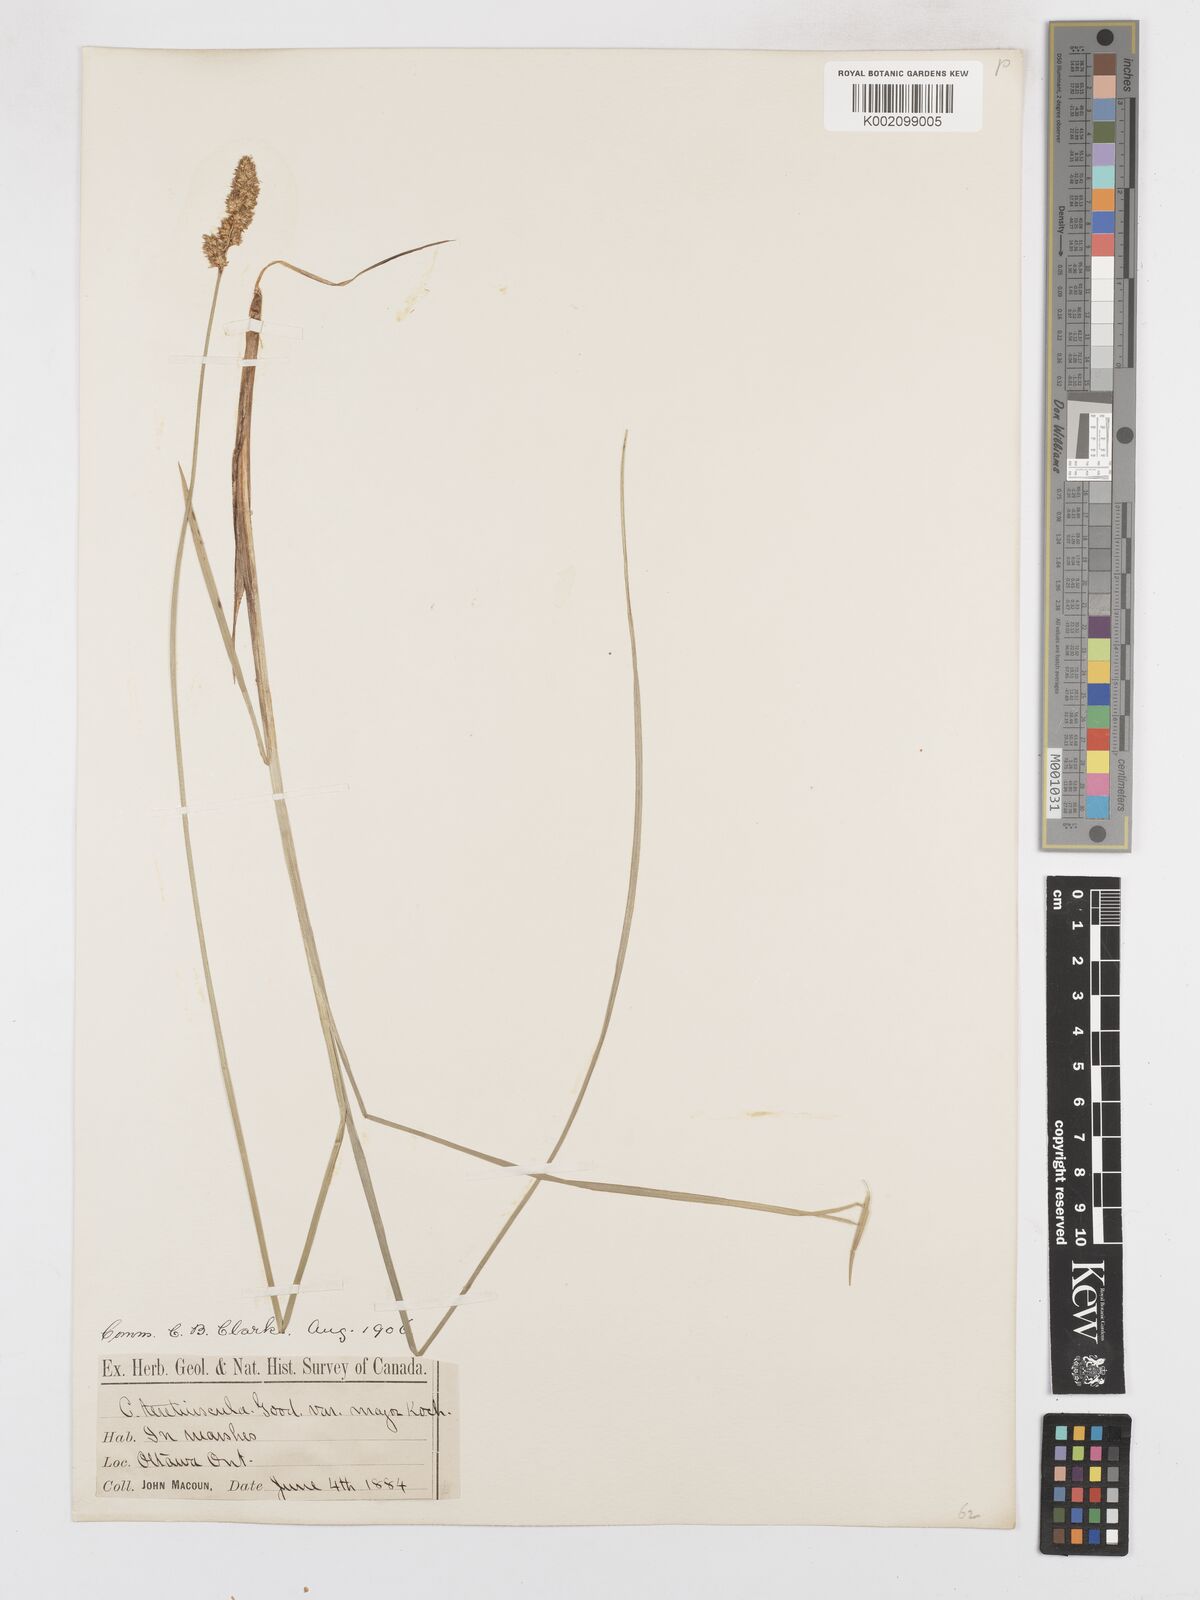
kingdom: Plantae
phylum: Tracheophyta
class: Liliopsida
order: Poales
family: Cyperaceae
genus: Carex
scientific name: Carex diandra
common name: Lesser tussock-sedge
